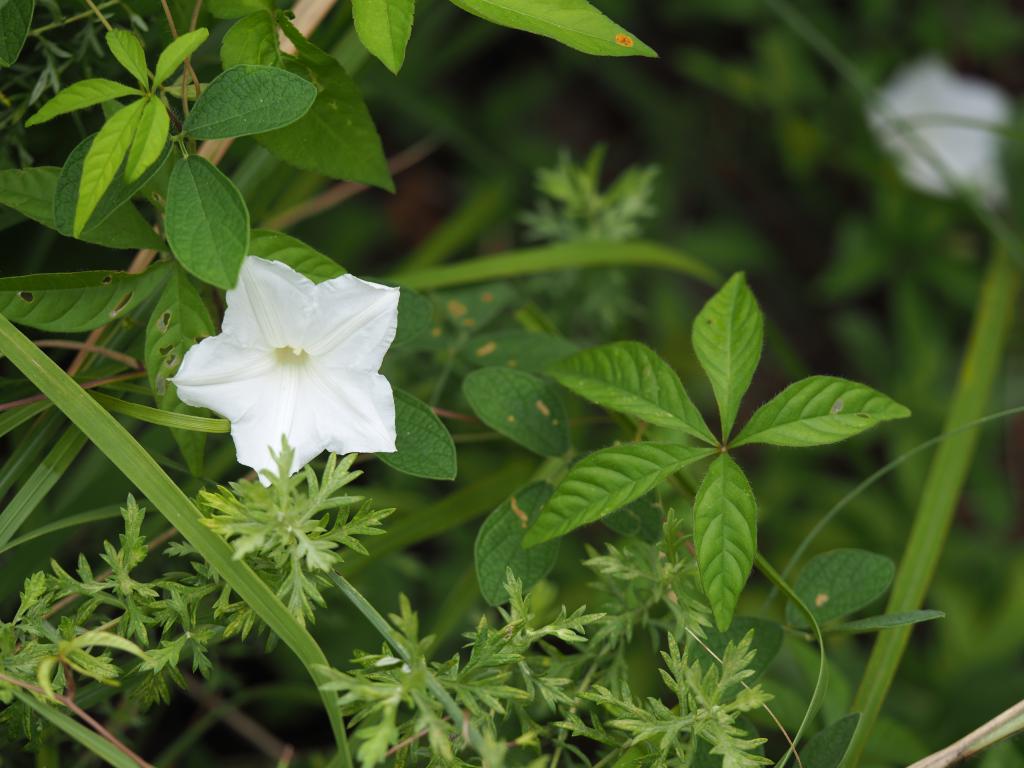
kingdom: Plantae
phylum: Tracheophyta
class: Magnoliopsida
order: Solanales
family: Convolvulaceae
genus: Distimake
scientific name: Distimake quinatus
